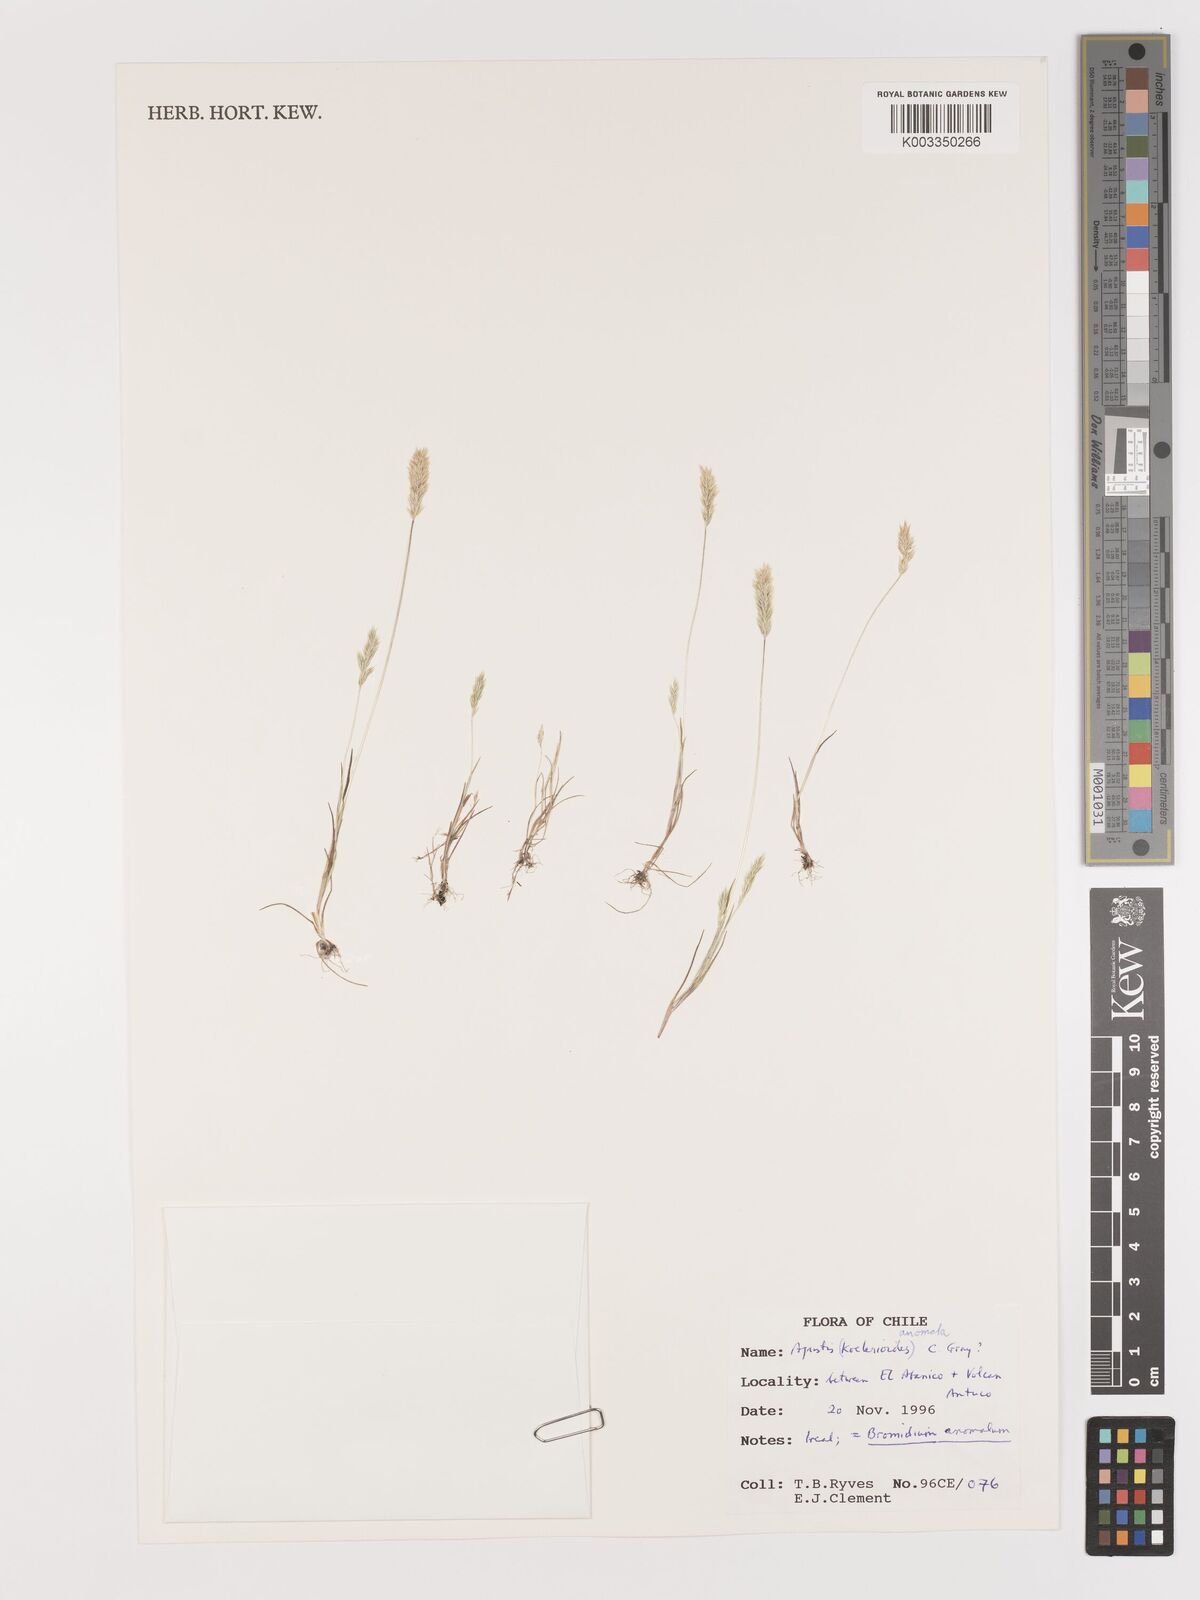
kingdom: Plantae
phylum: Tracheophyta
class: Liliopsida
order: Poales
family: Poaceae
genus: Agrostis
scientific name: Agrostis koelerioides
